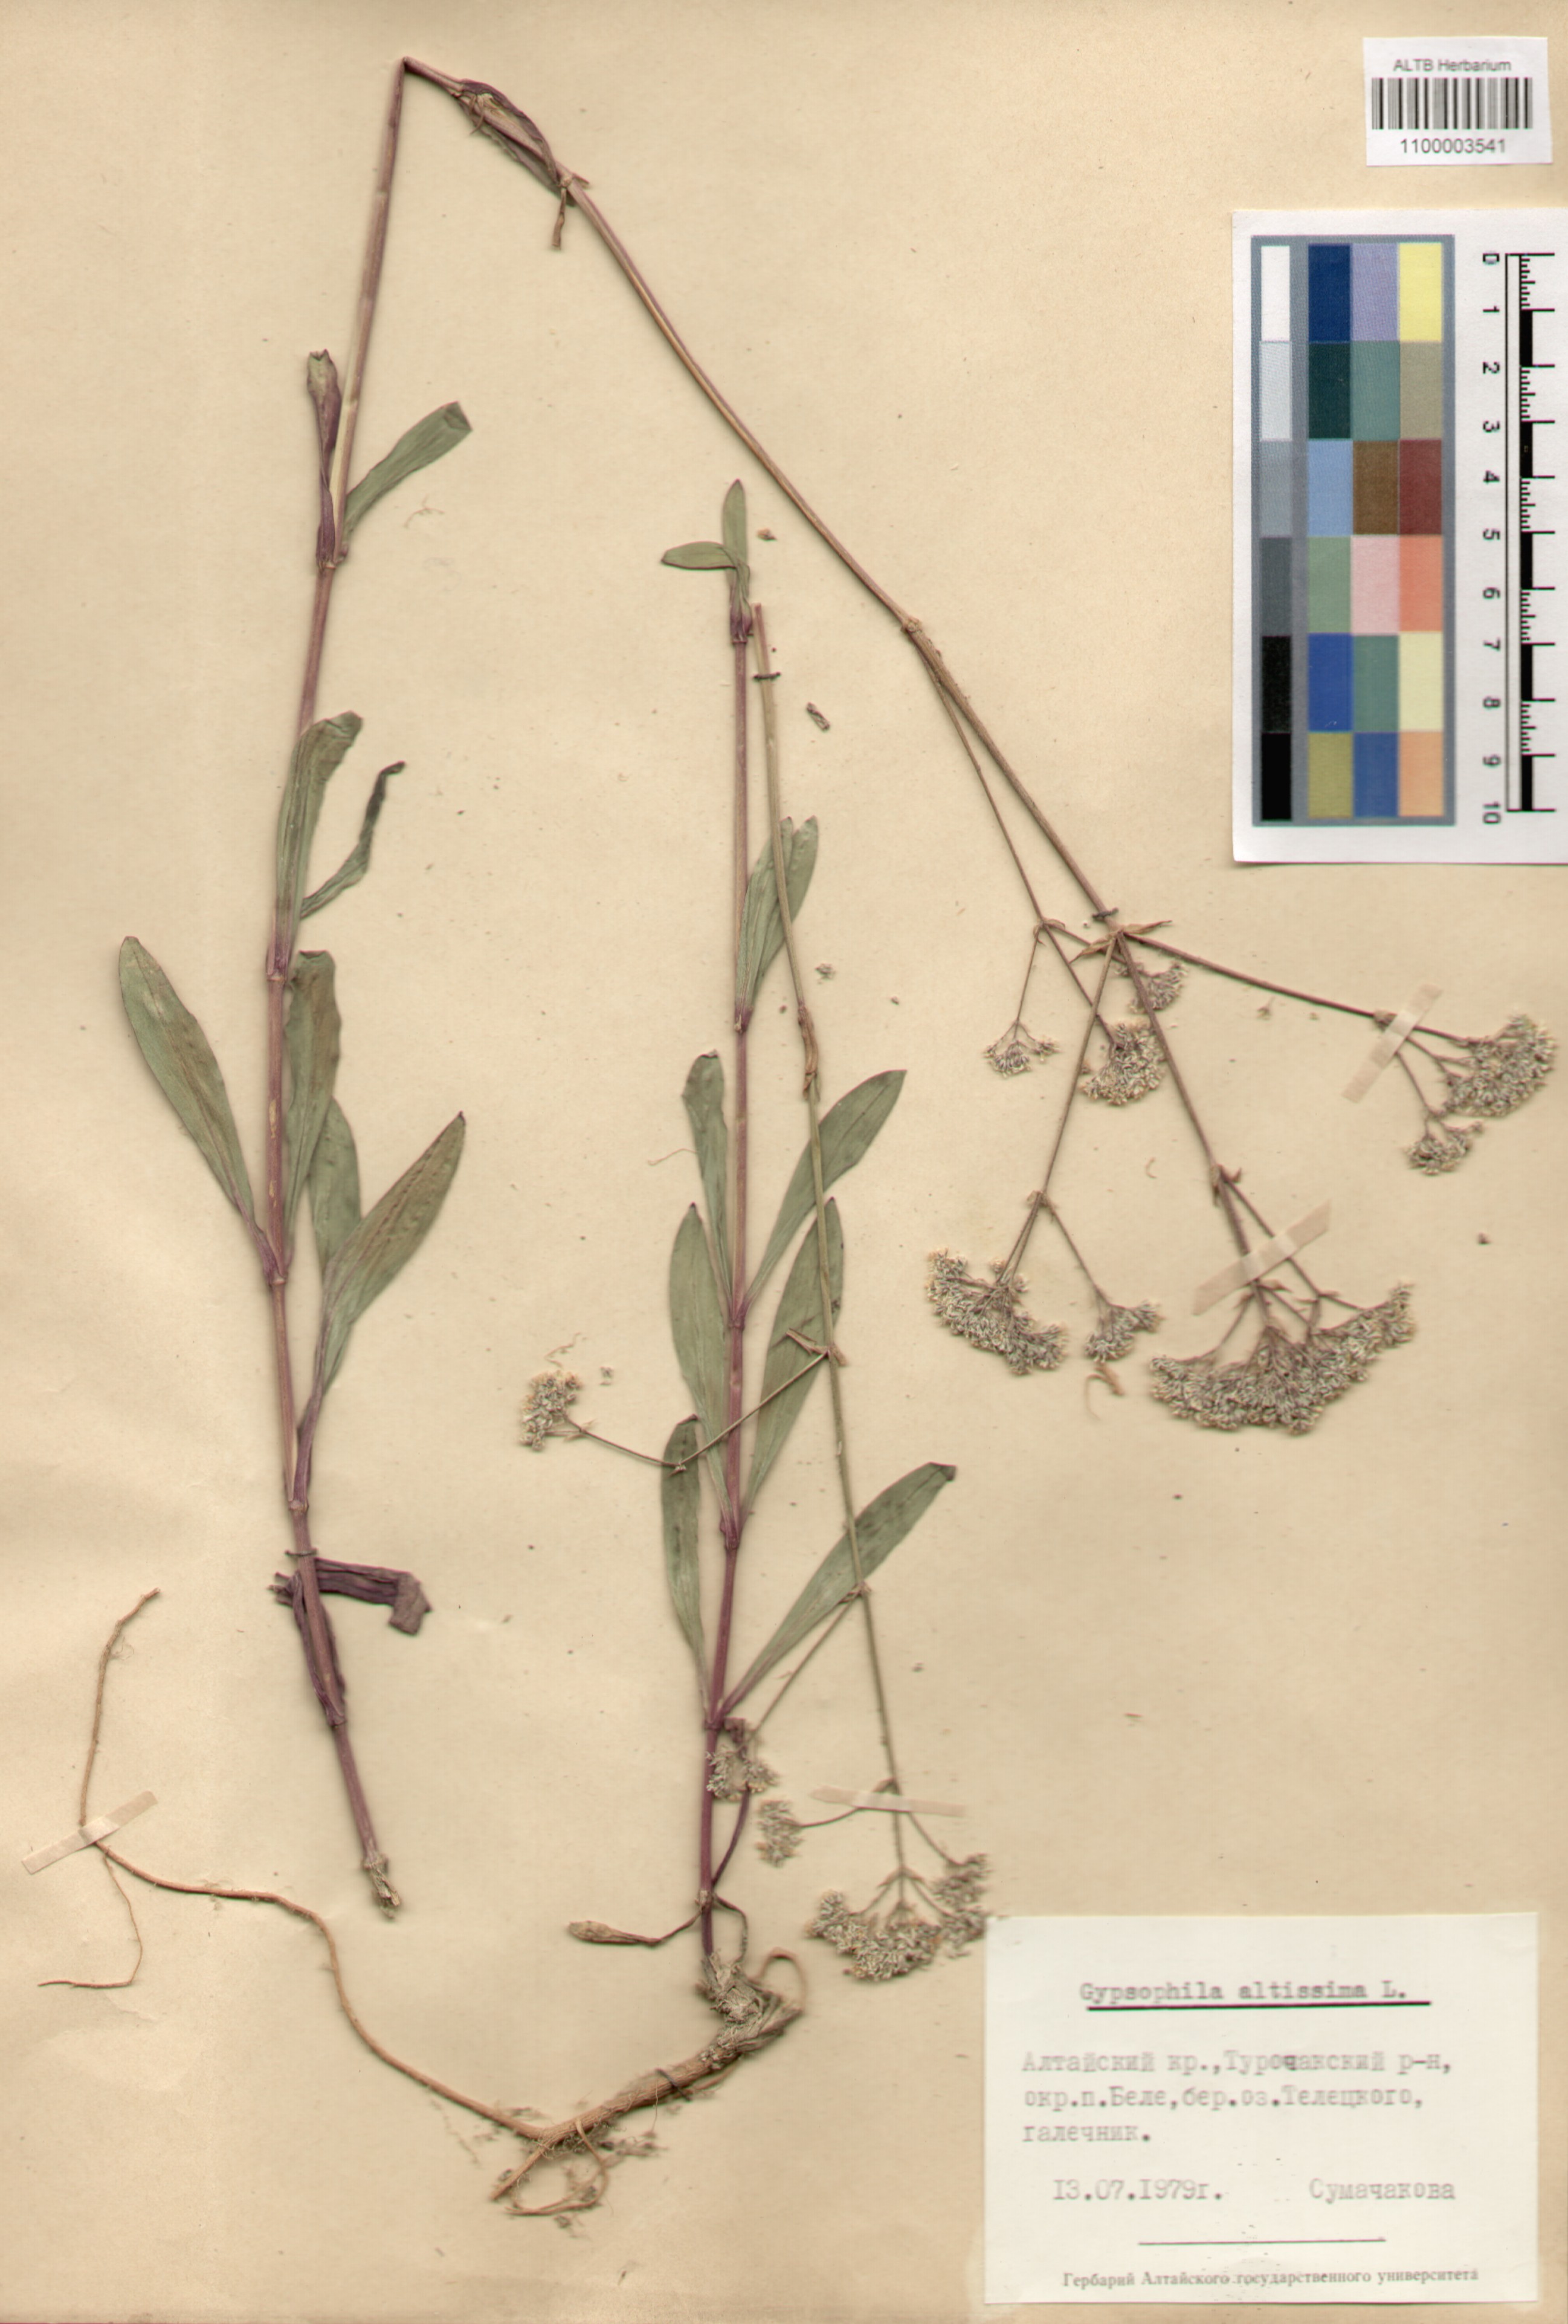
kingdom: Plantae
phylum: Tracheophyta
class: Magnoliopsida
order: Caryophyllales
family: Caryophyllaceae
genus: Gypsophila
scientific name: Gypsophila altissima
